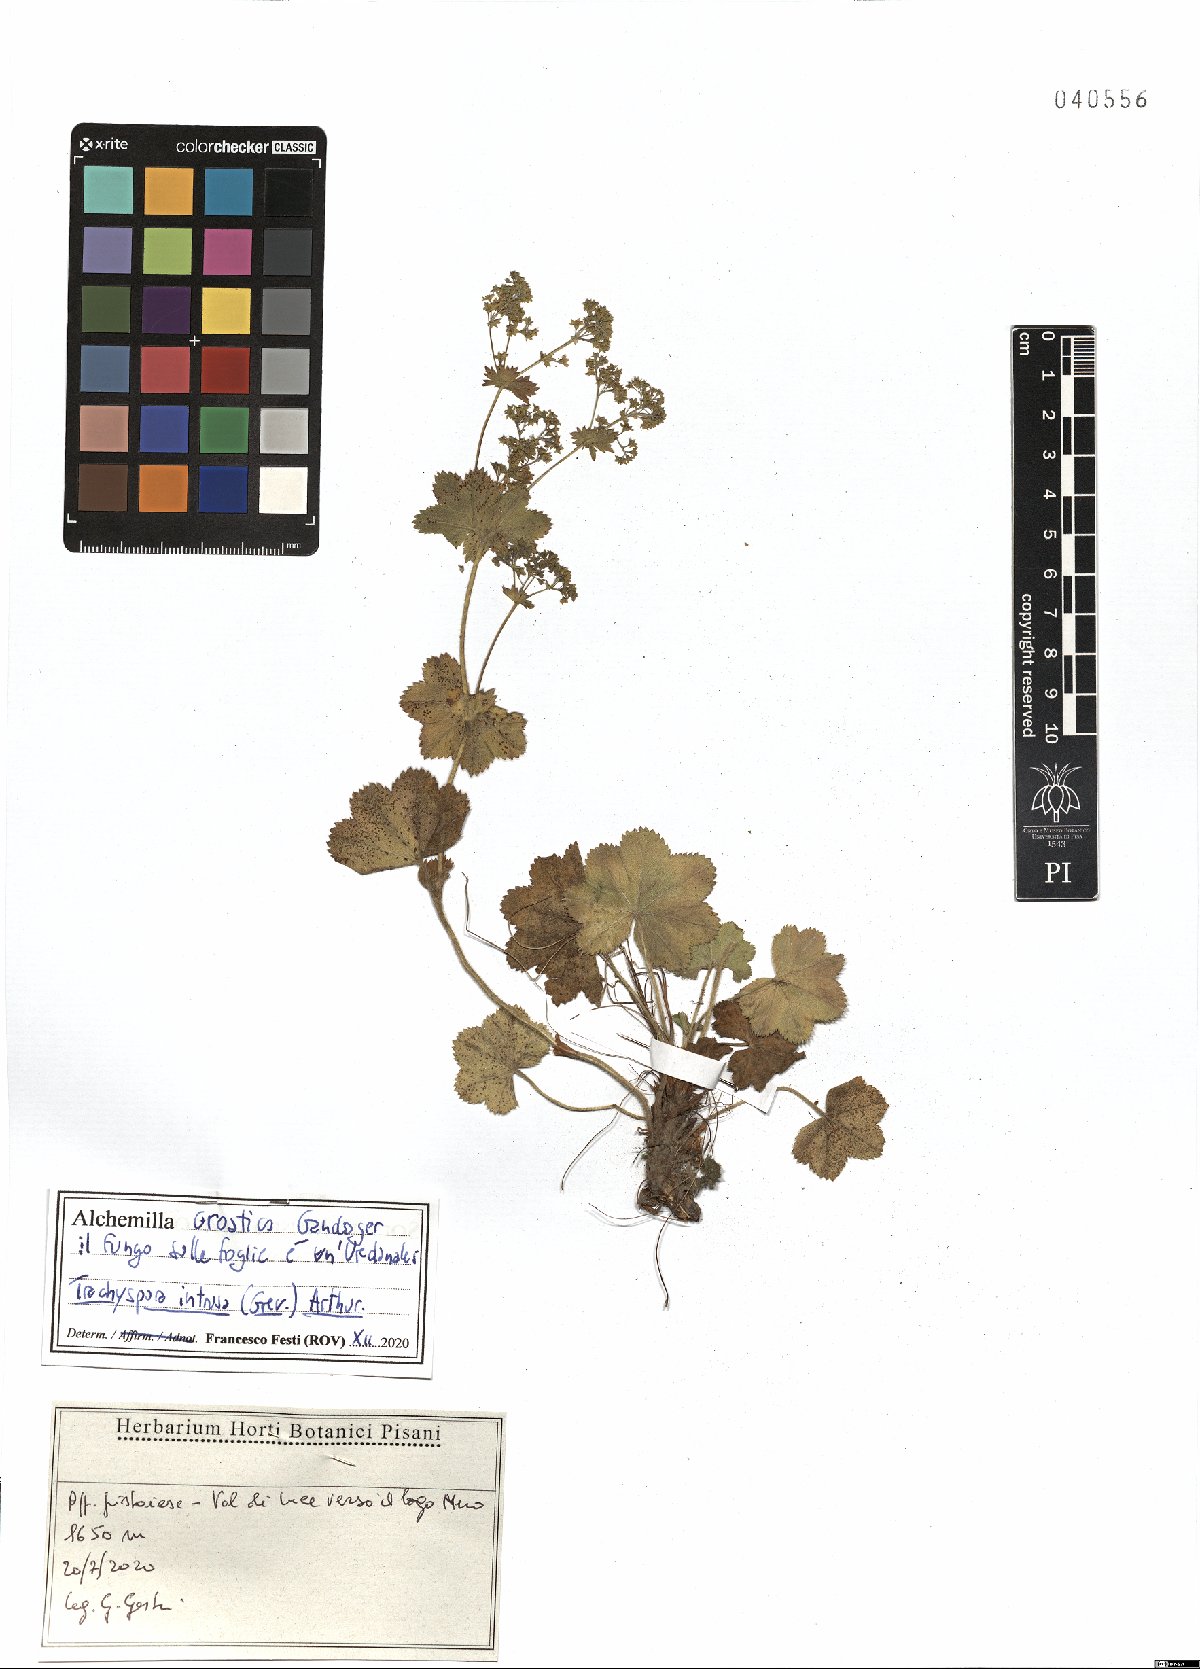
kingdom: Plantae
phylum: Tracheophyta
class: Magnoliopsida
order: Rosales
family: Rosaceae
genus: Alchemilla
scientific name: Alchemilla croatica
